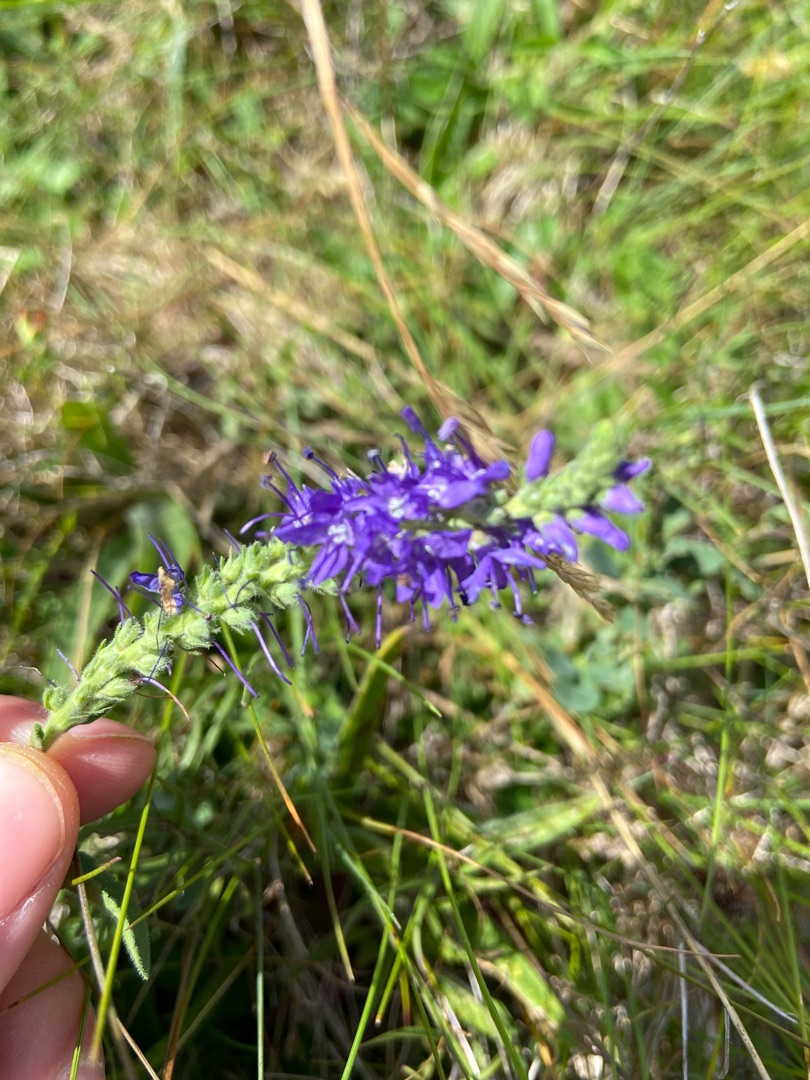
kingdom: Plantae
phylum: Tracheophyta
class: Magnoliopsida
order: Lamiales
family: Plantaginaceae
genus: Veronica
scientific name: Veronica spicata
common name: Aks-ærenpris
